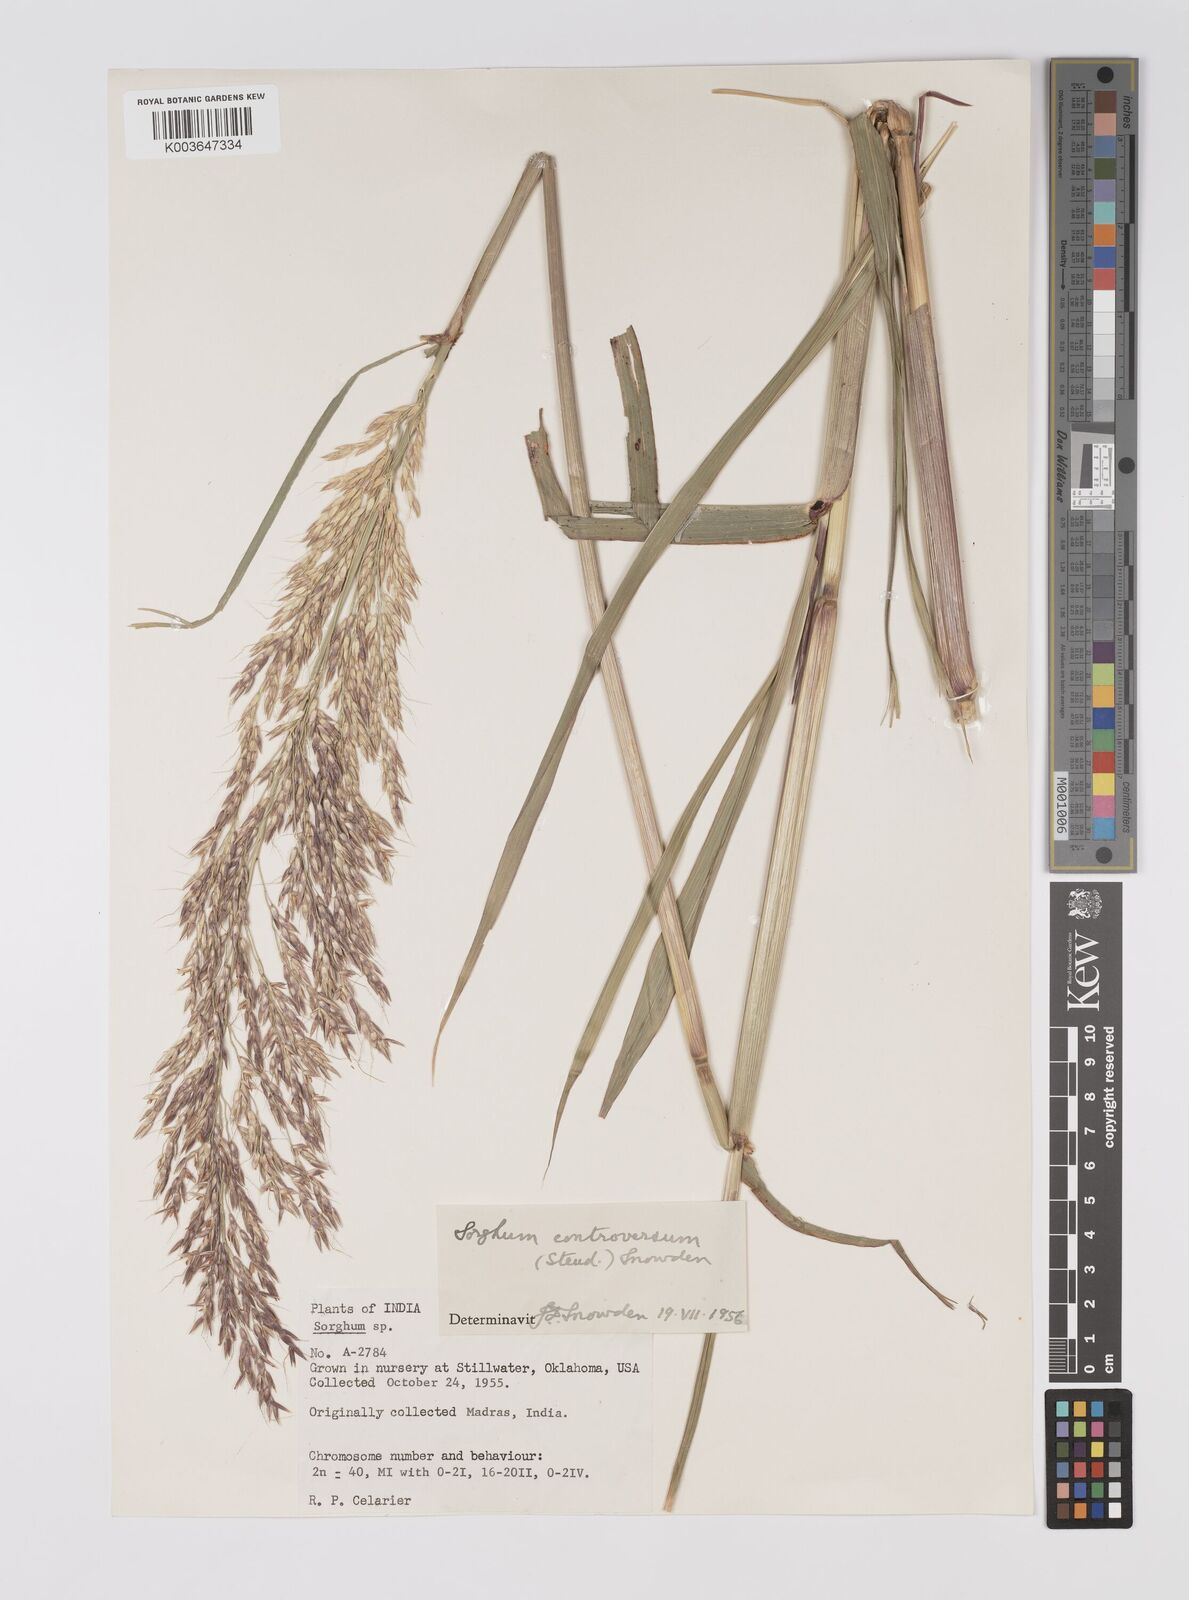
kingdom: Plantae
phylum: Tracheophyta
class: Liliopsida
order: Poales
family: Poaceae
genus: Sorghum
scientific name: Sorghum controversum
